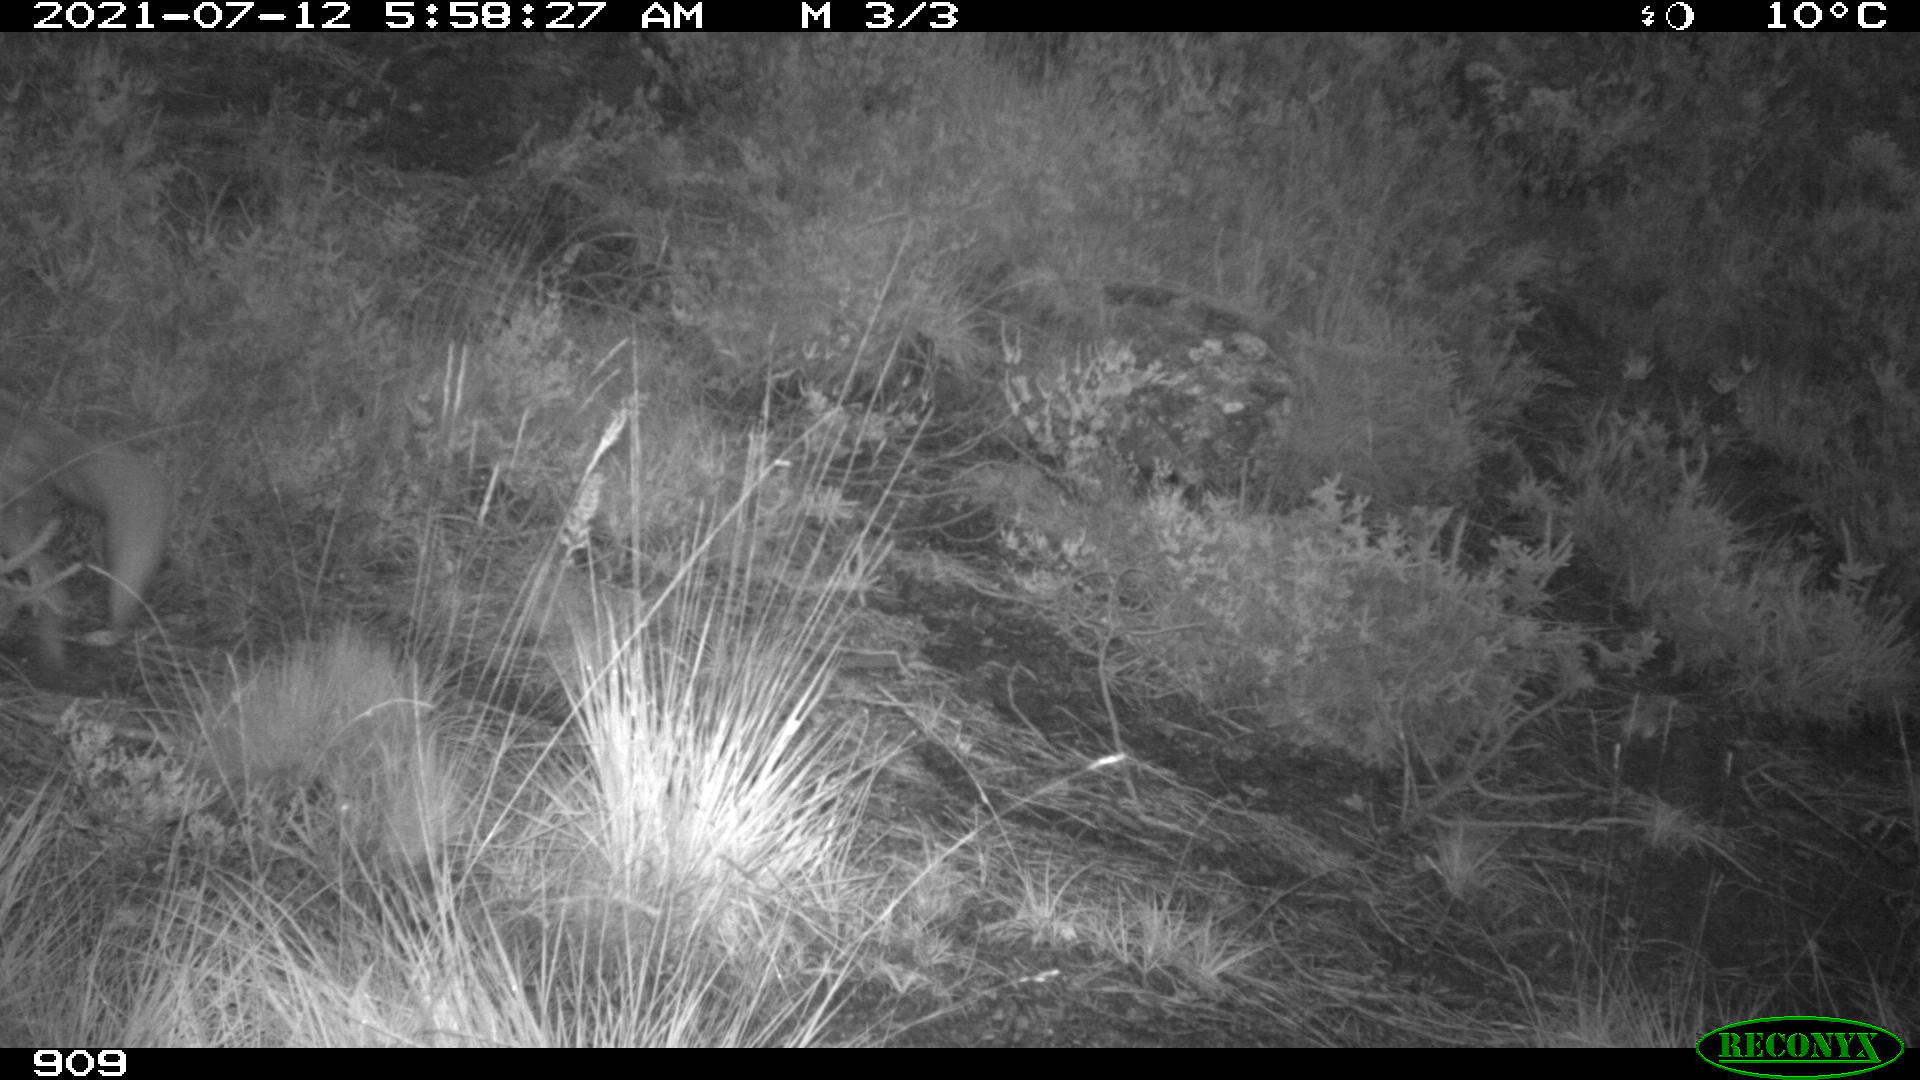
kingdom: Animalia
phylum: Chordata
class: Mammalia
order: Carnivora
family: Canidae
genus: Vulpes
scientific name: Vulpes vulpes
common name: Red fox
